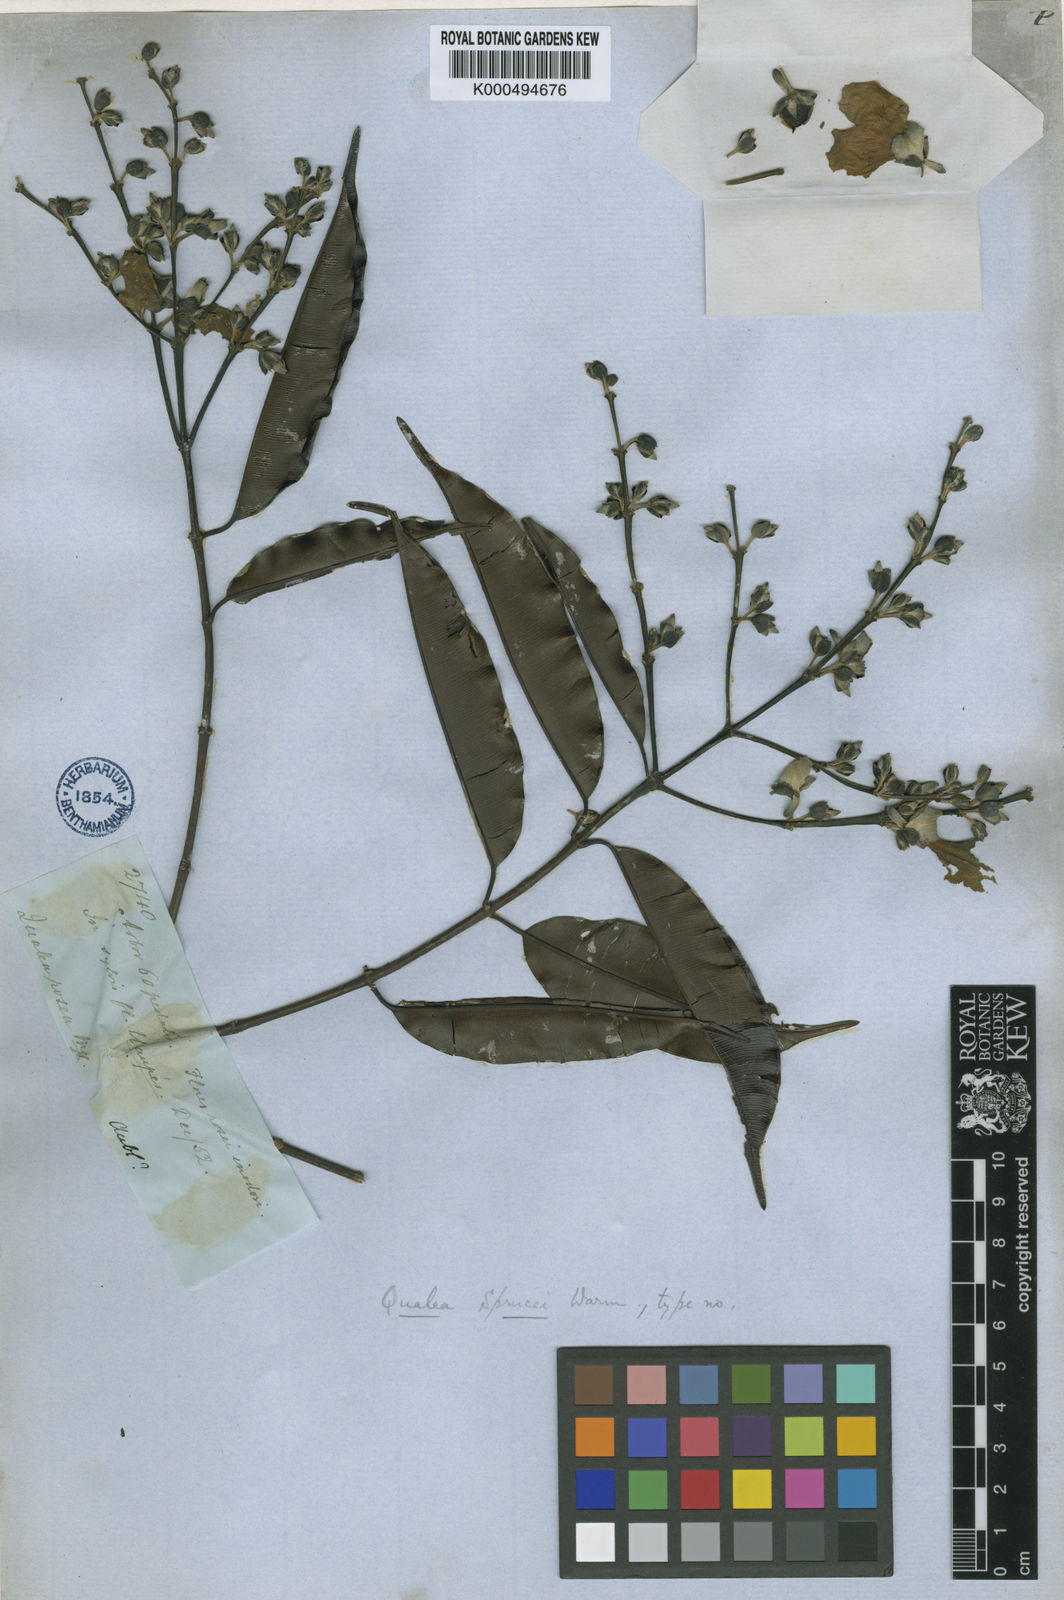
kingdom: Plantae
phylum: Tracheophyta
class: Magnoliopsida
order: Myrtales
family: Vochysiaceae
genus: Qualea
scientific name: Qualea sprucei
